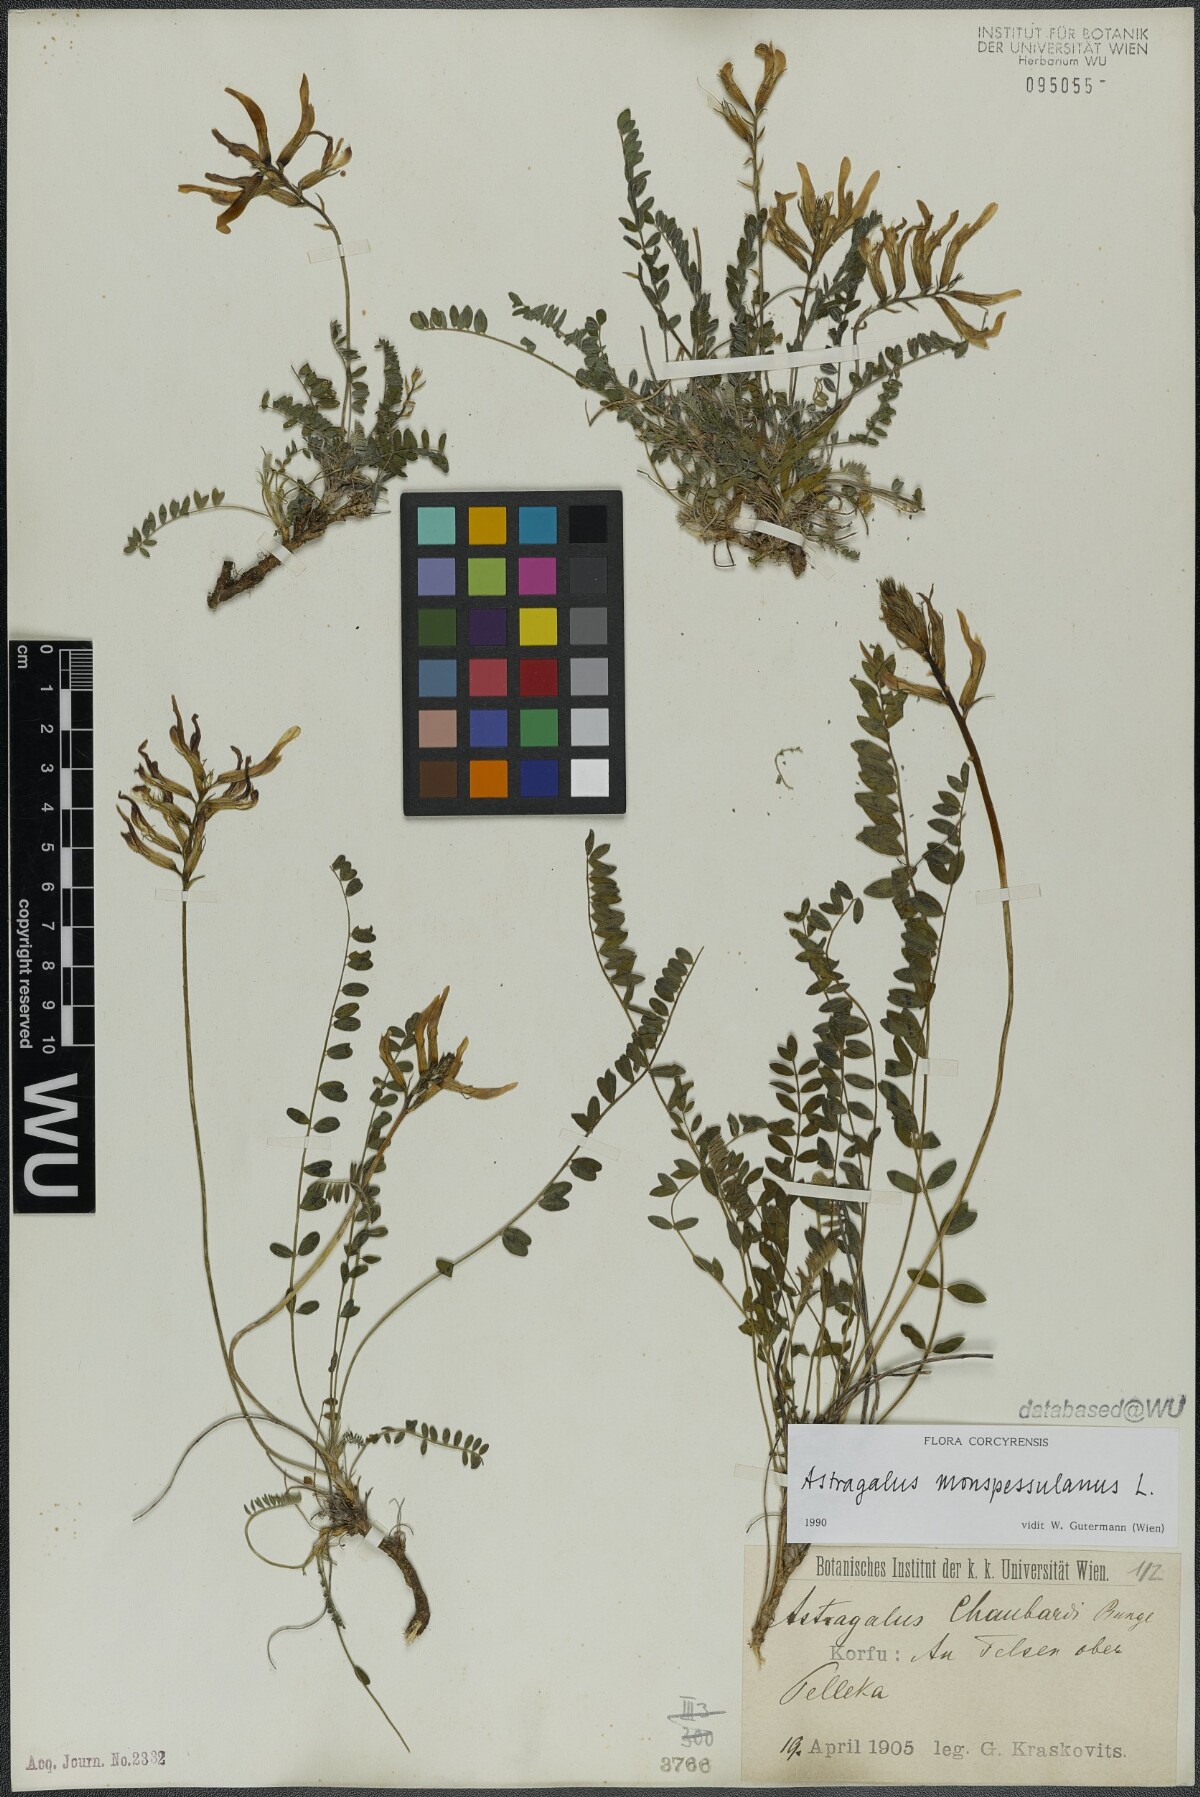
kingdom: Plantae
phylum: Tracheophyta
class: Magnoliopsida
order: Fabales
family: Fabaceae
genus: Astragalus
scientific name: Astragalus monspessulanus
